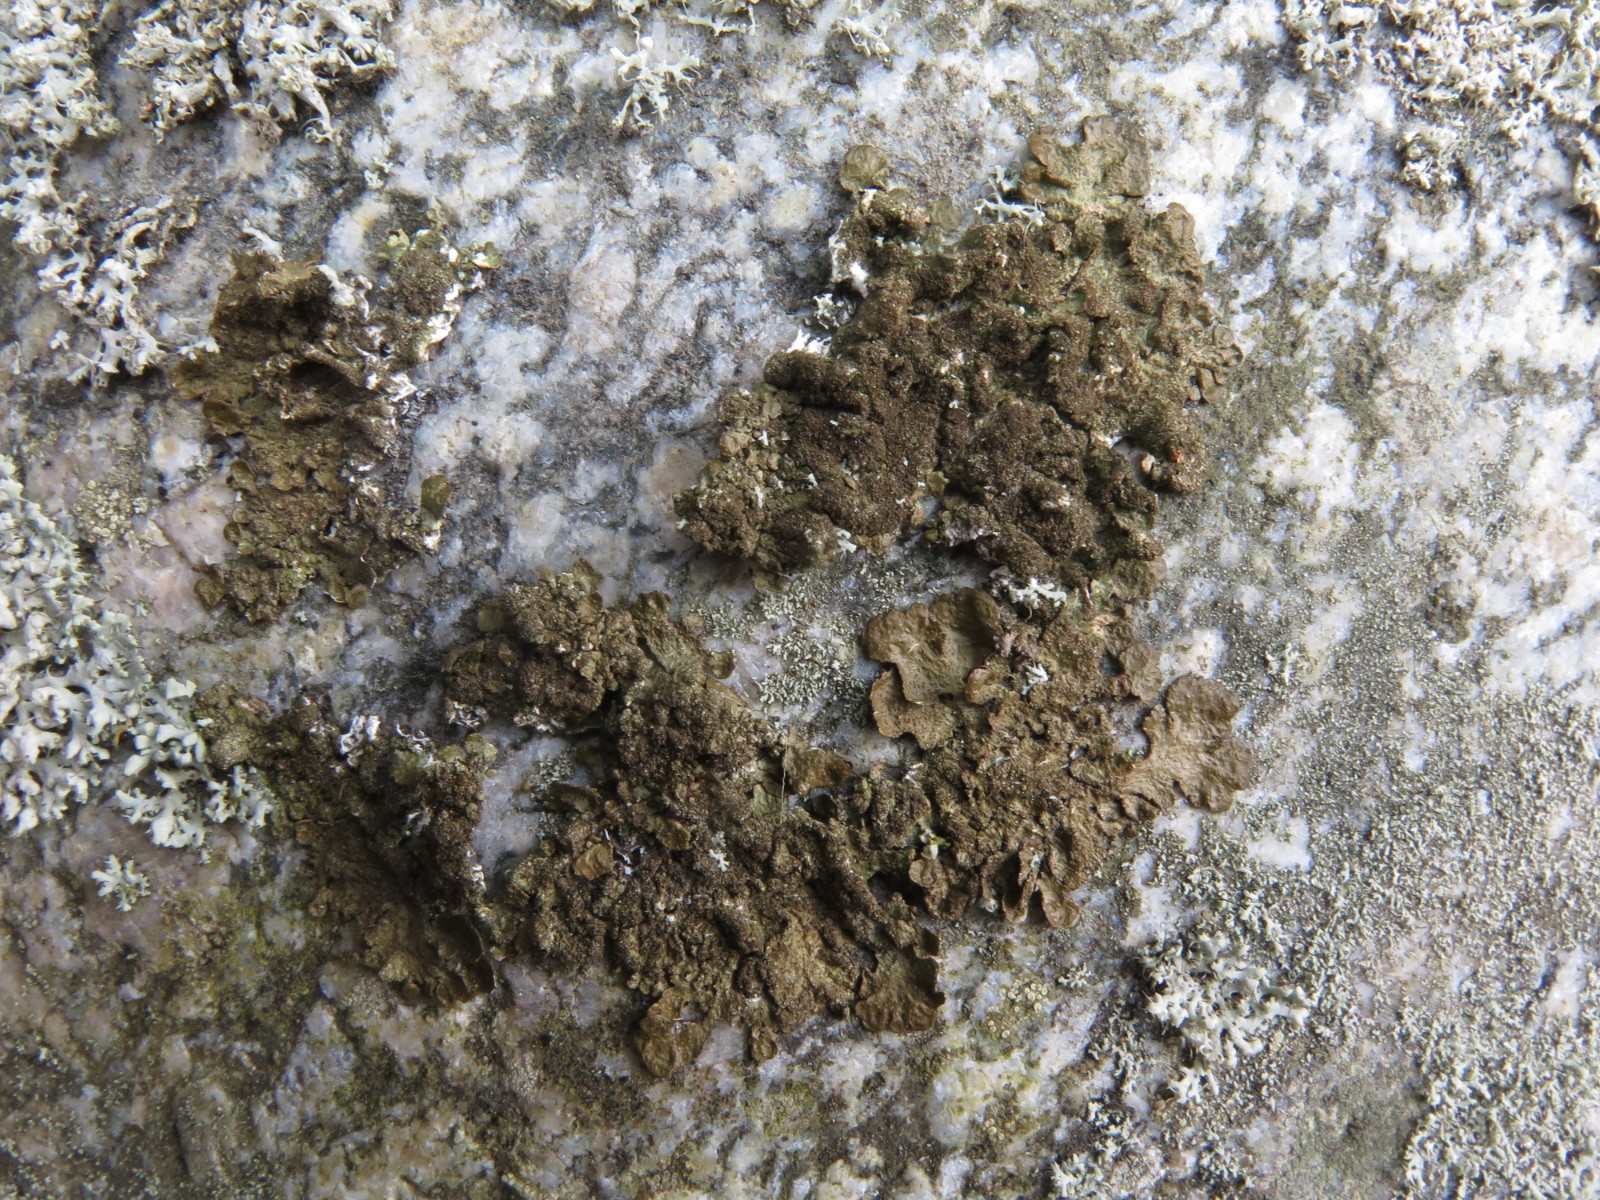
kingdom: Fungi
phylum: Ascomycota
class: Lecanoromycetes
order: Lecanorales
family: Parmeliaceae
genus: Melanelixia
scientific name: Melanelixia subaurifera
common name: guldpudret skållav
